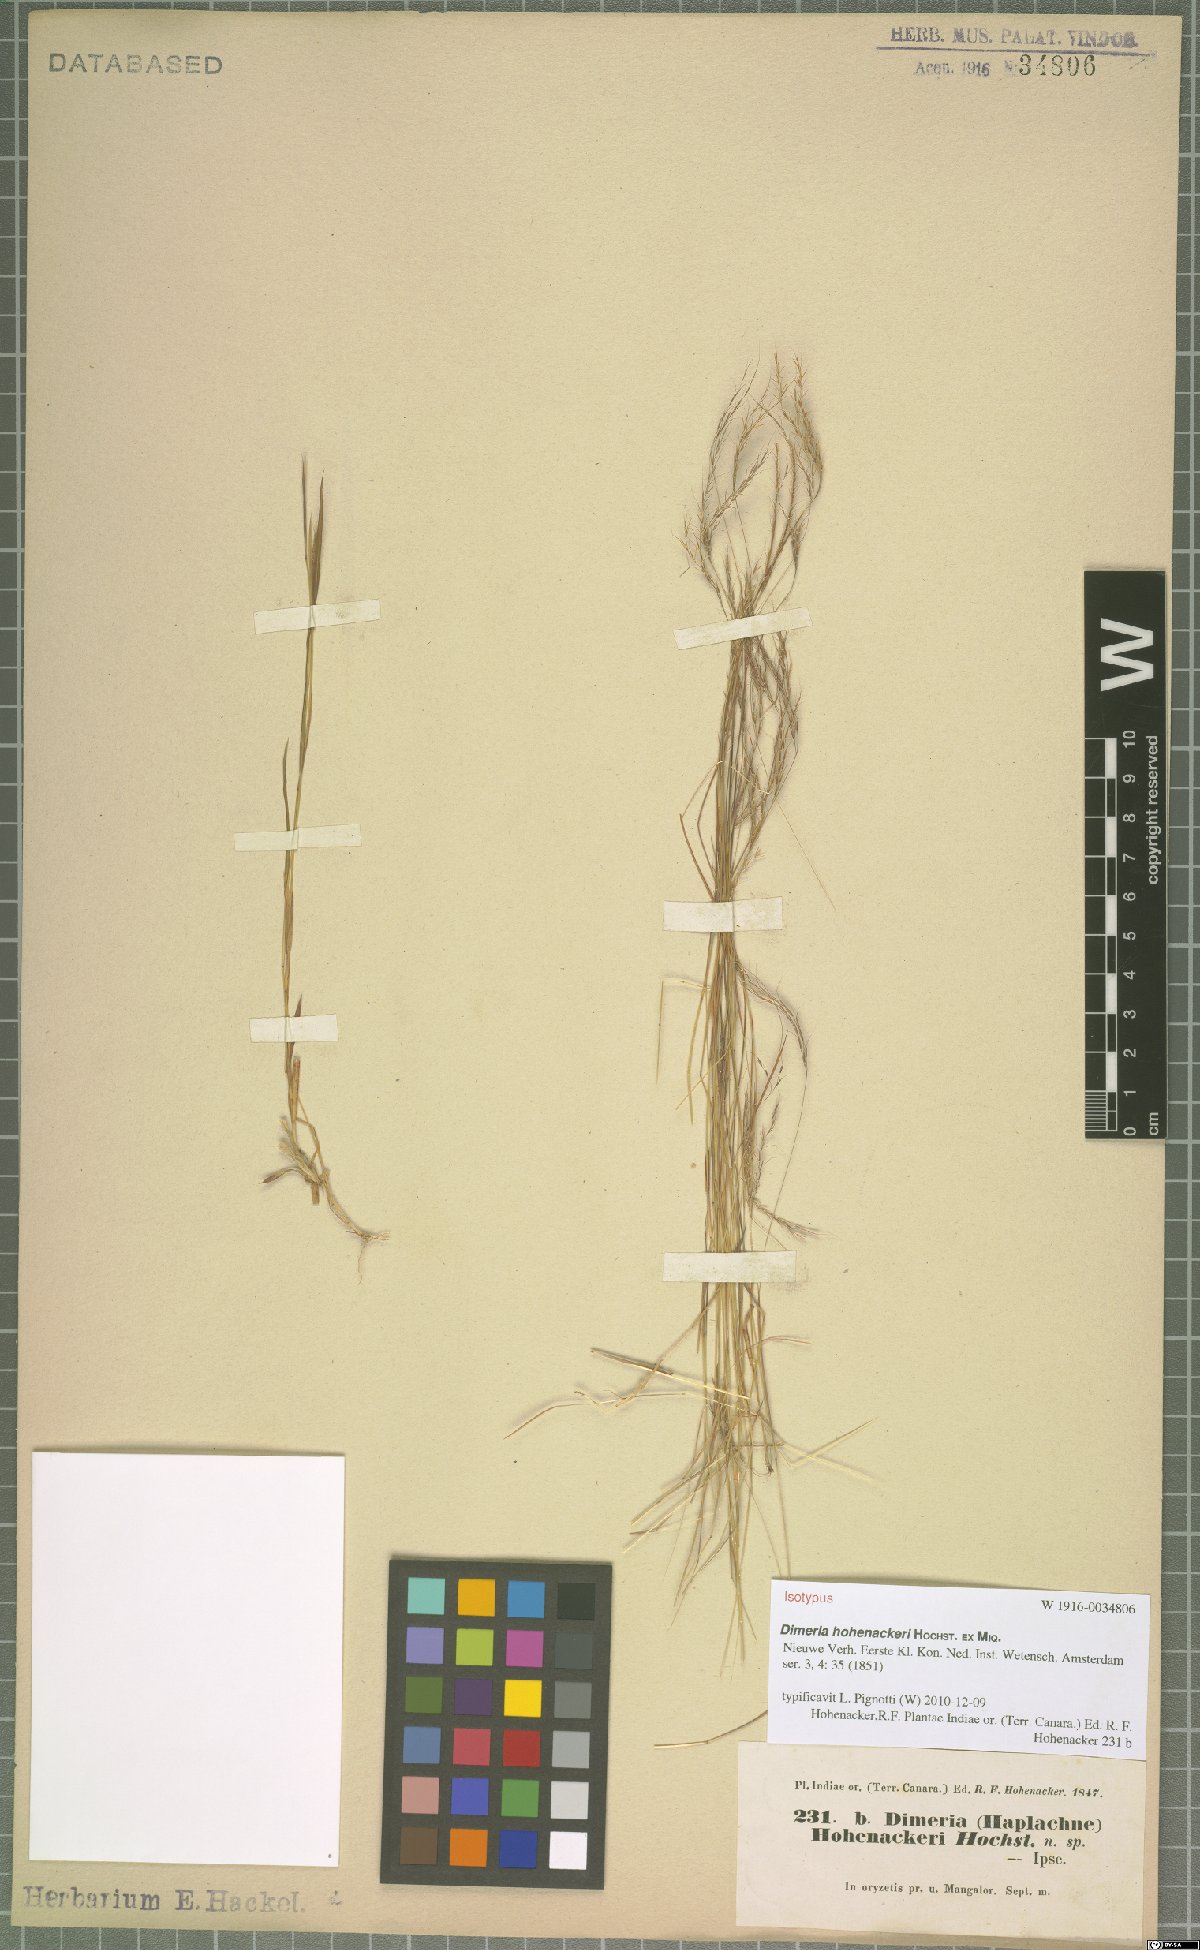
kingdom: Plantae
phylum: Tracheophyta
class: Liliopsida
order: Poales
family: Poaceae
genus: Dimeria
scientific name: Dimeria hohenackeri
